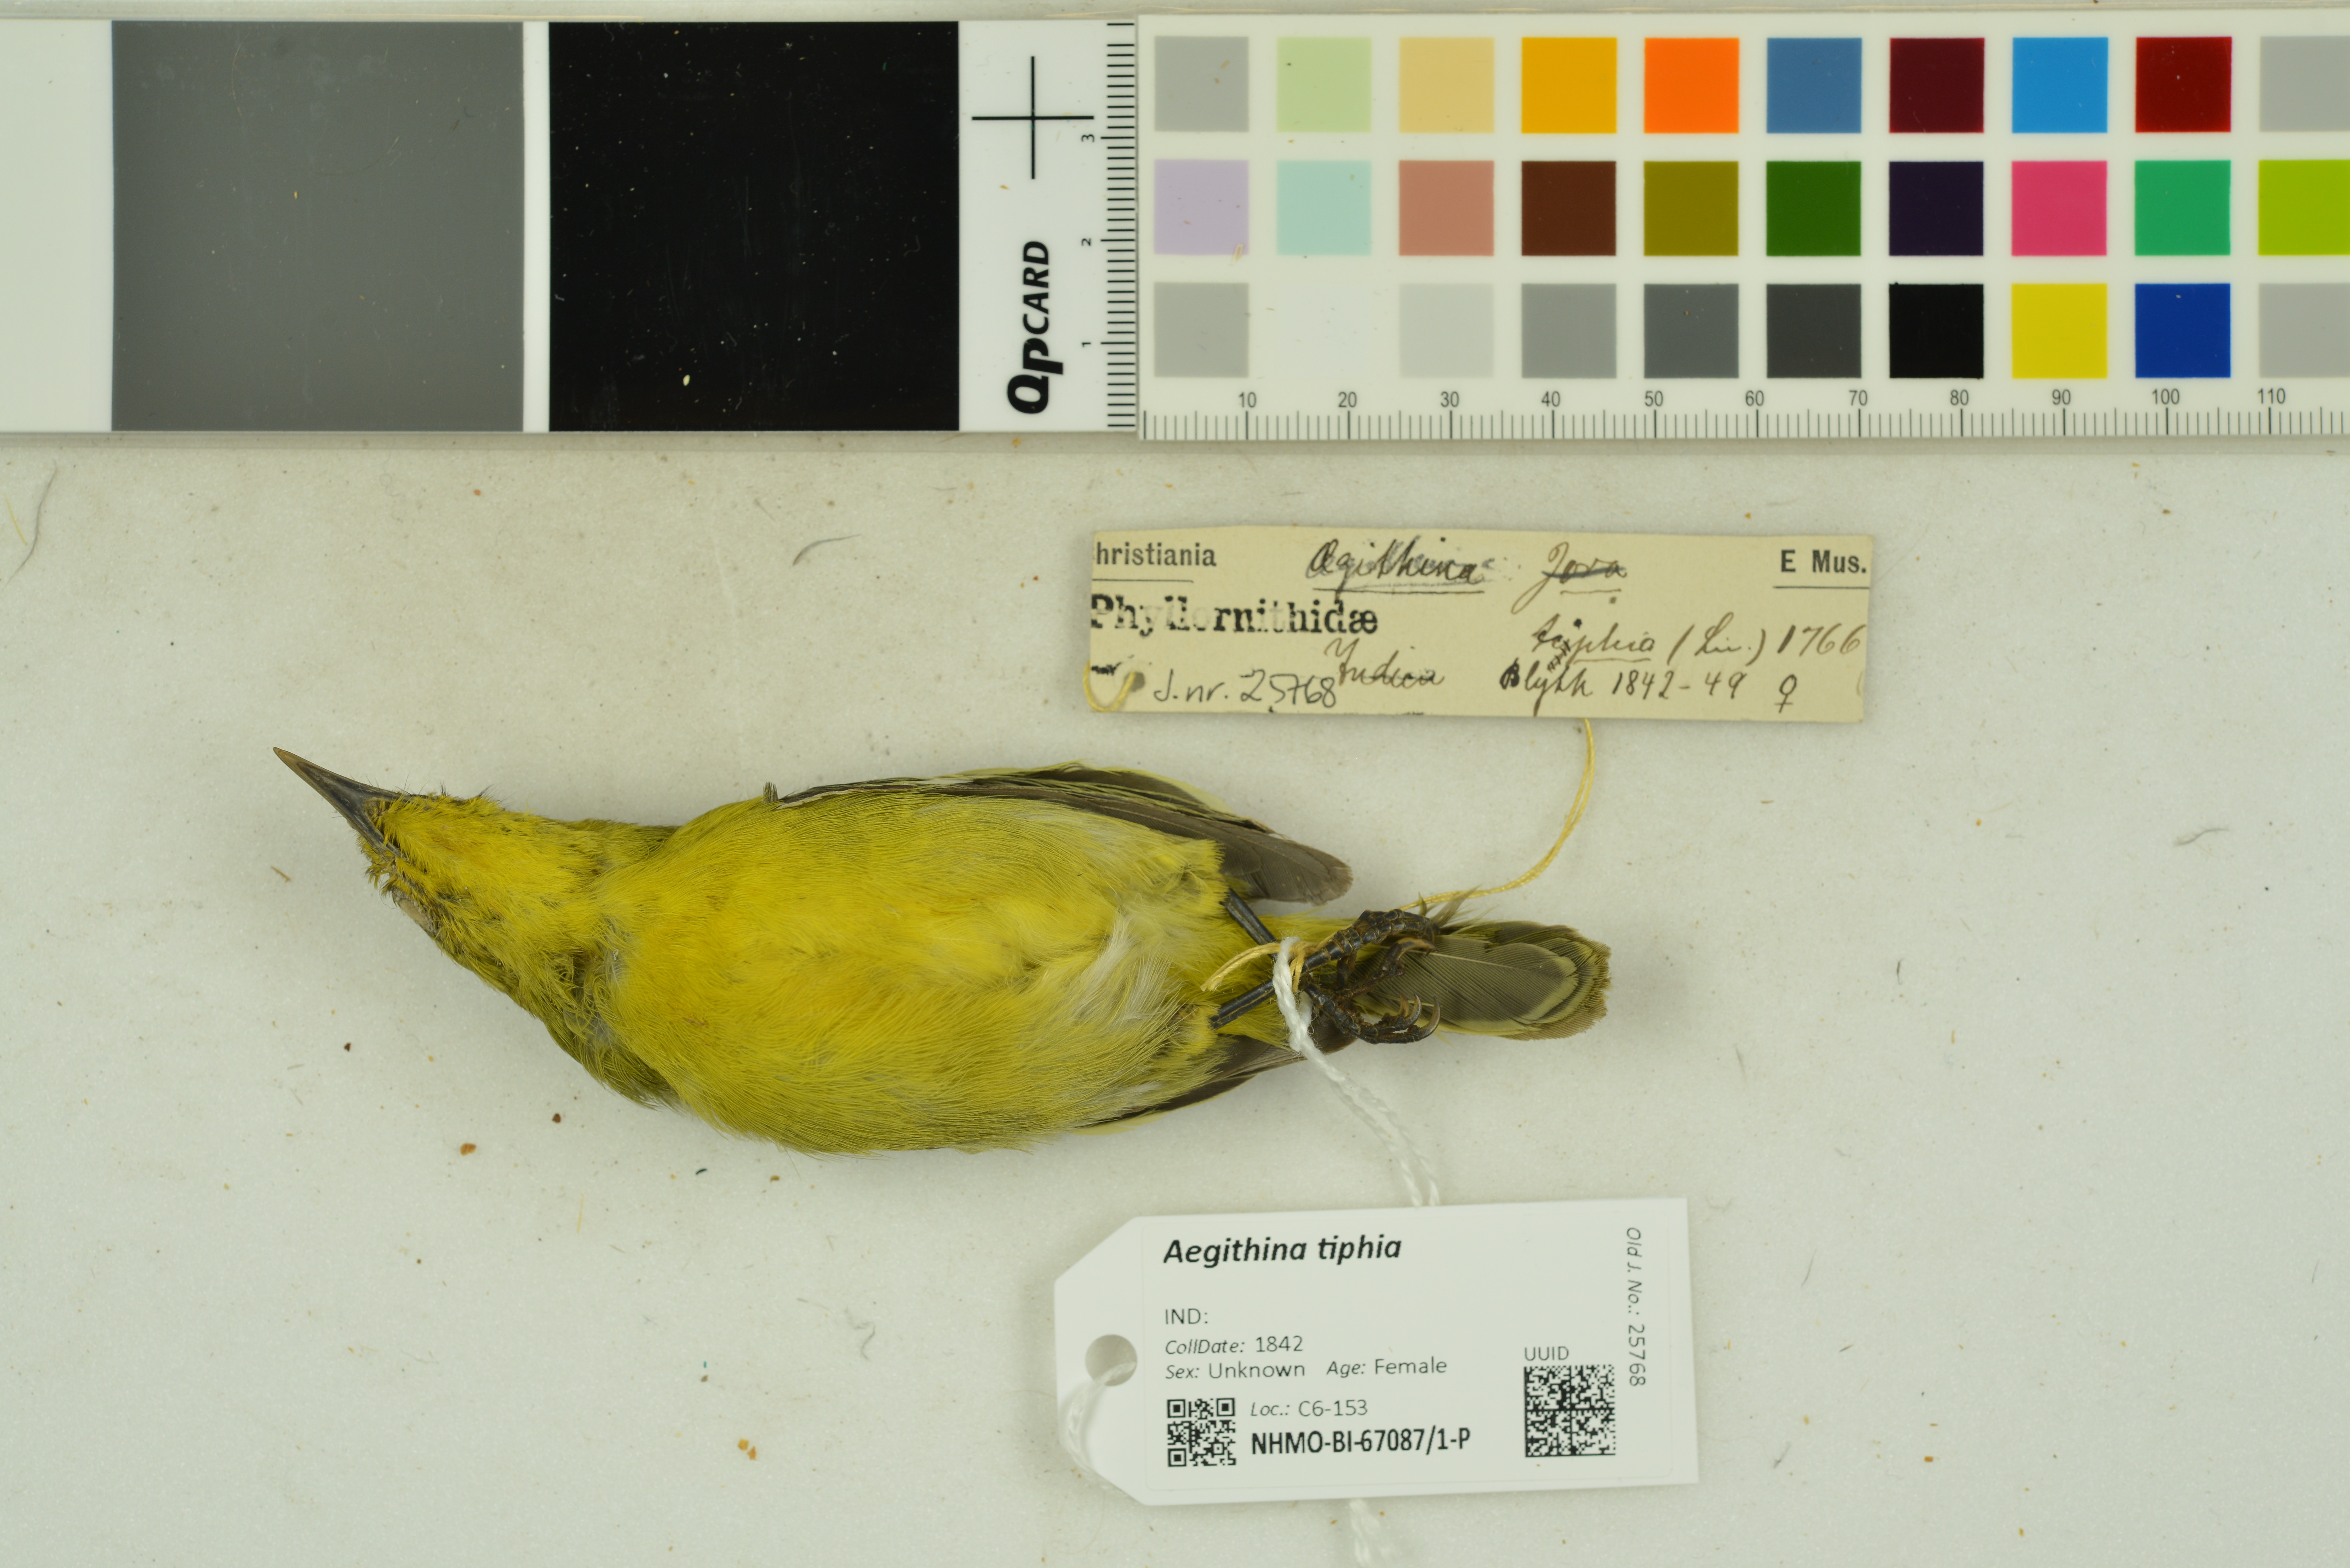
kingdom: Animalia
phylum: Chordata
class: Aves
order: Passeriformes
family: Aegithinidae
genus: Aegithina
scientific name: Aegithina tiphia
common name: Common iora
